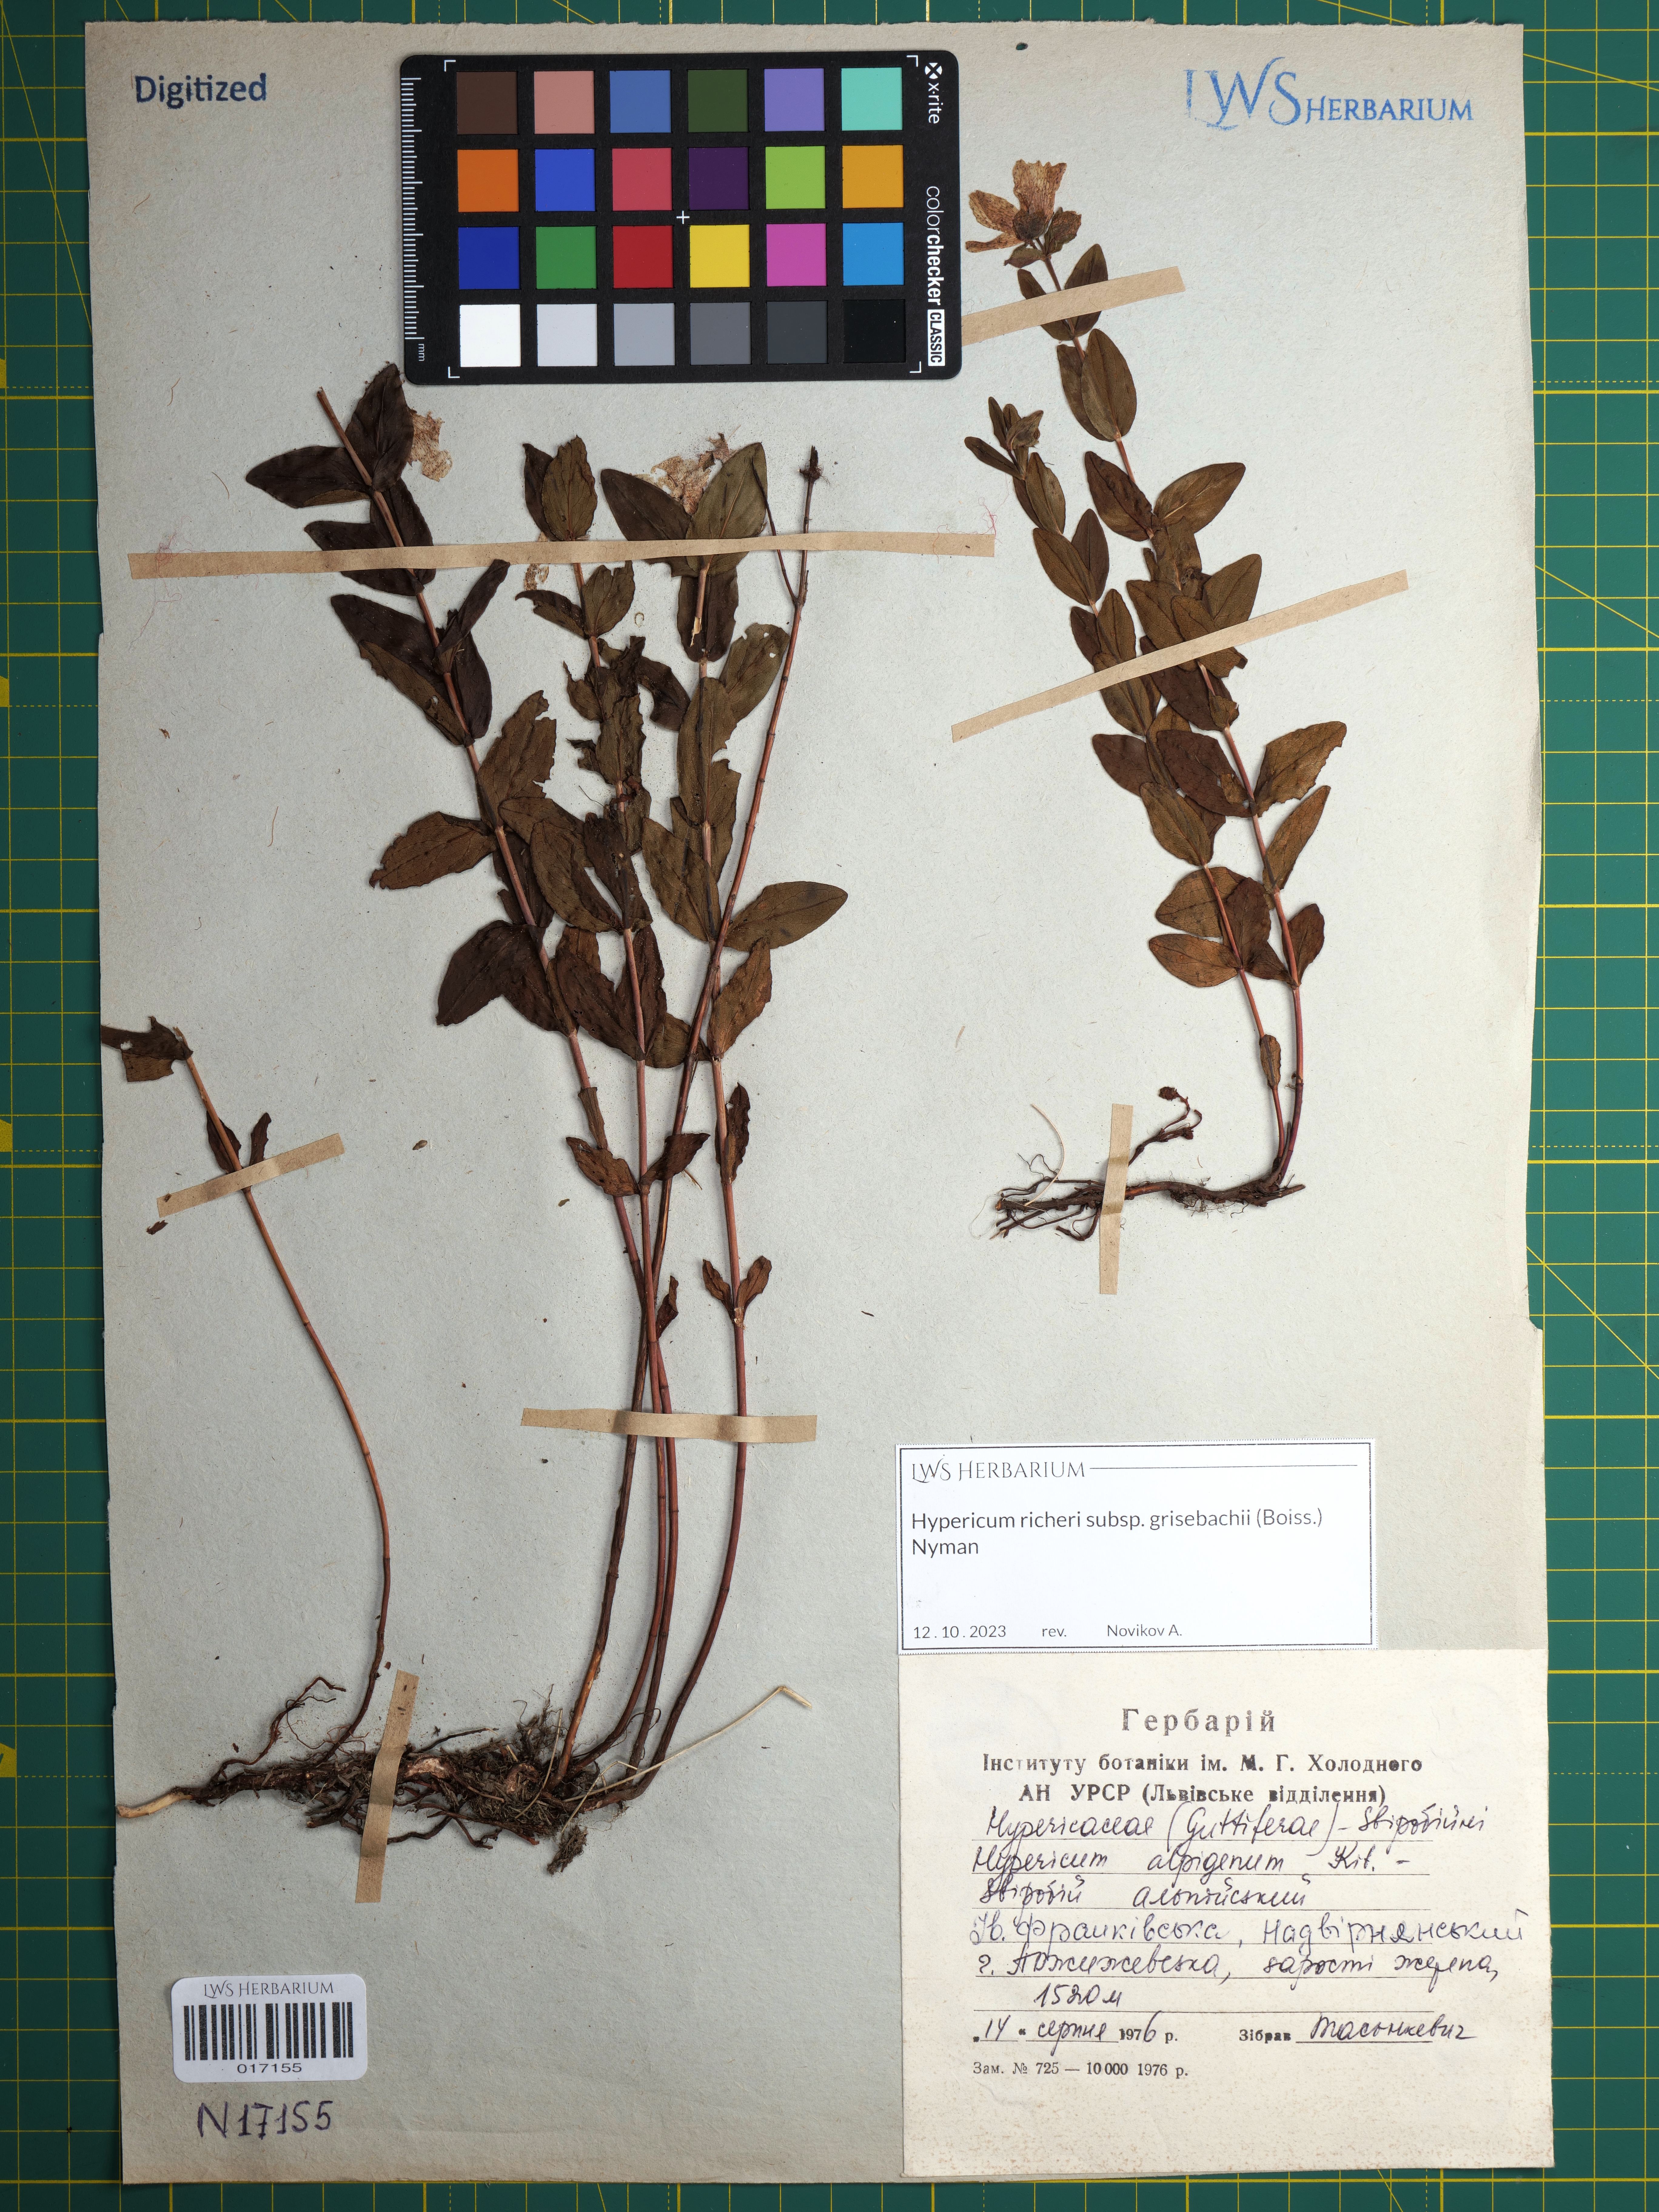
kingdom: Plantae
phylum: Tracheophyta
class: Magnoliopsida
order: Malpighiales
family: Hypericaceae
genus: Hypericum
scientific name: Hypericum richeri
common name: Alpine st john's-wort
